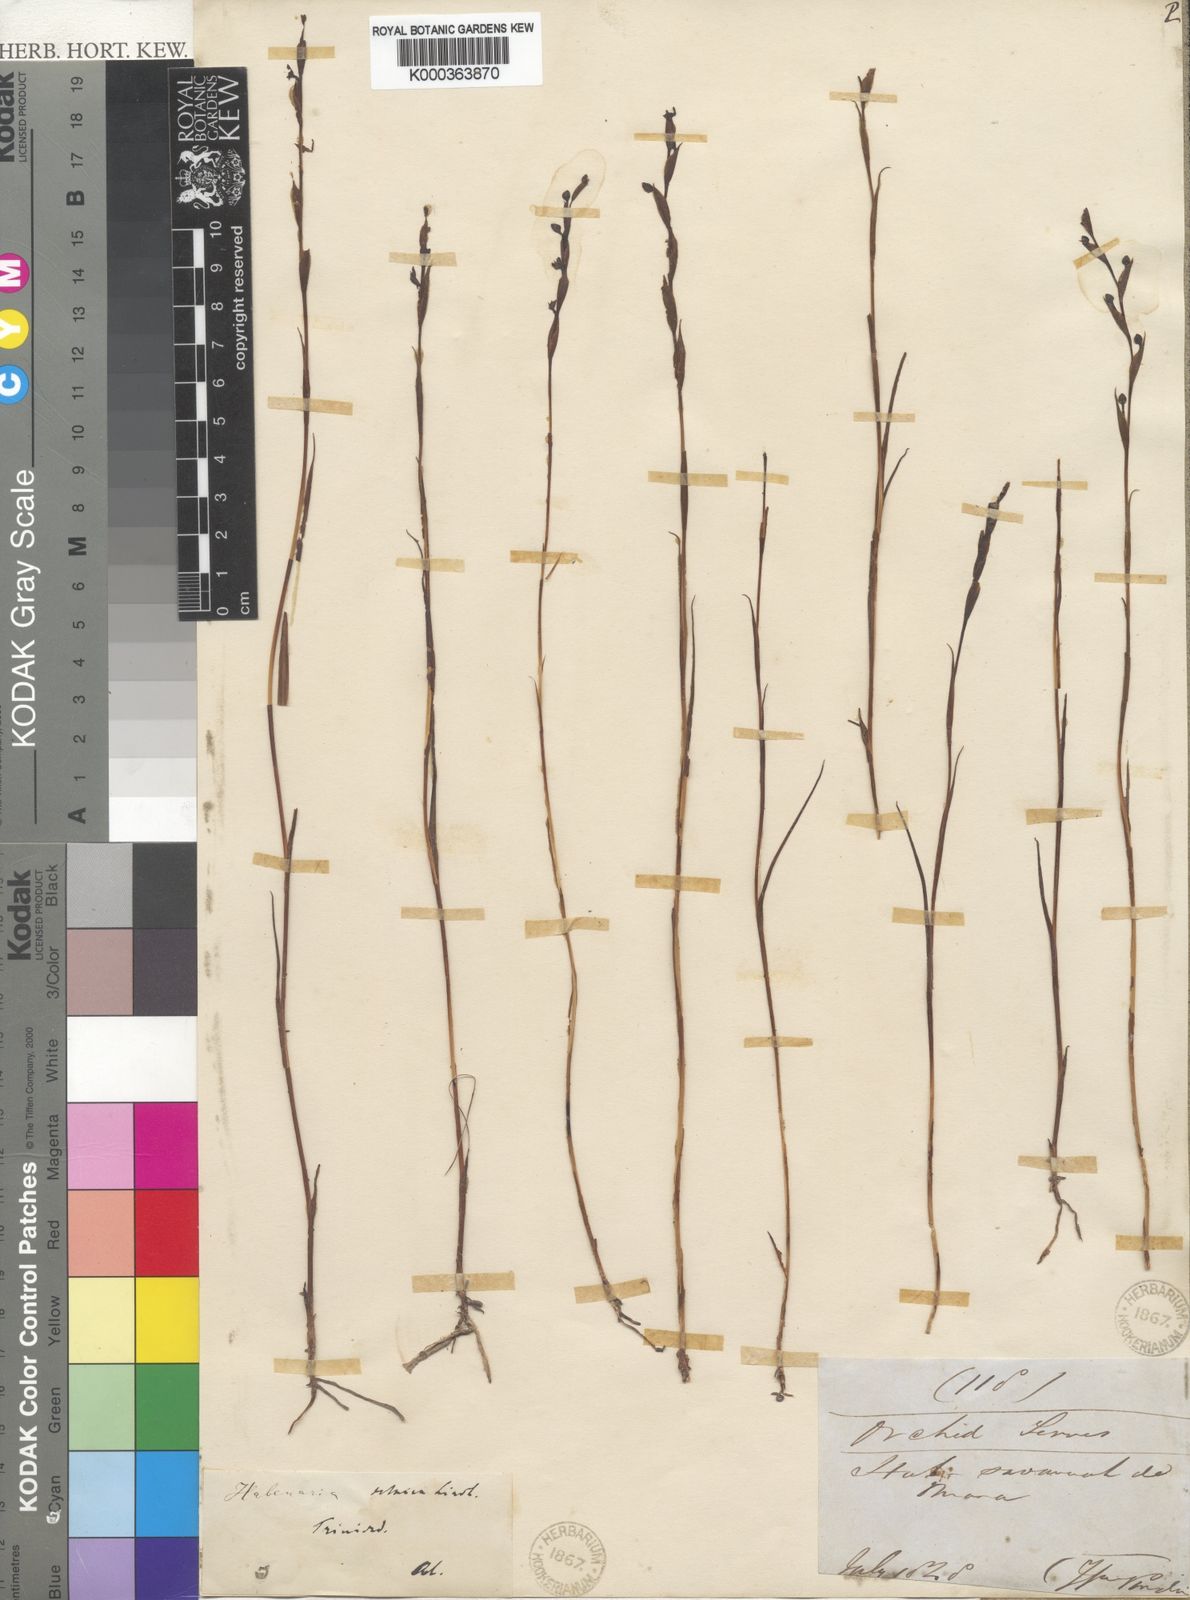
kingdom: Plantae
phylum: Tracheophyta
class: Liliopsida
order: Asparagales
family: Orchidaceae
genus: Habenaria
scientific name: Habenaria leprieurii
